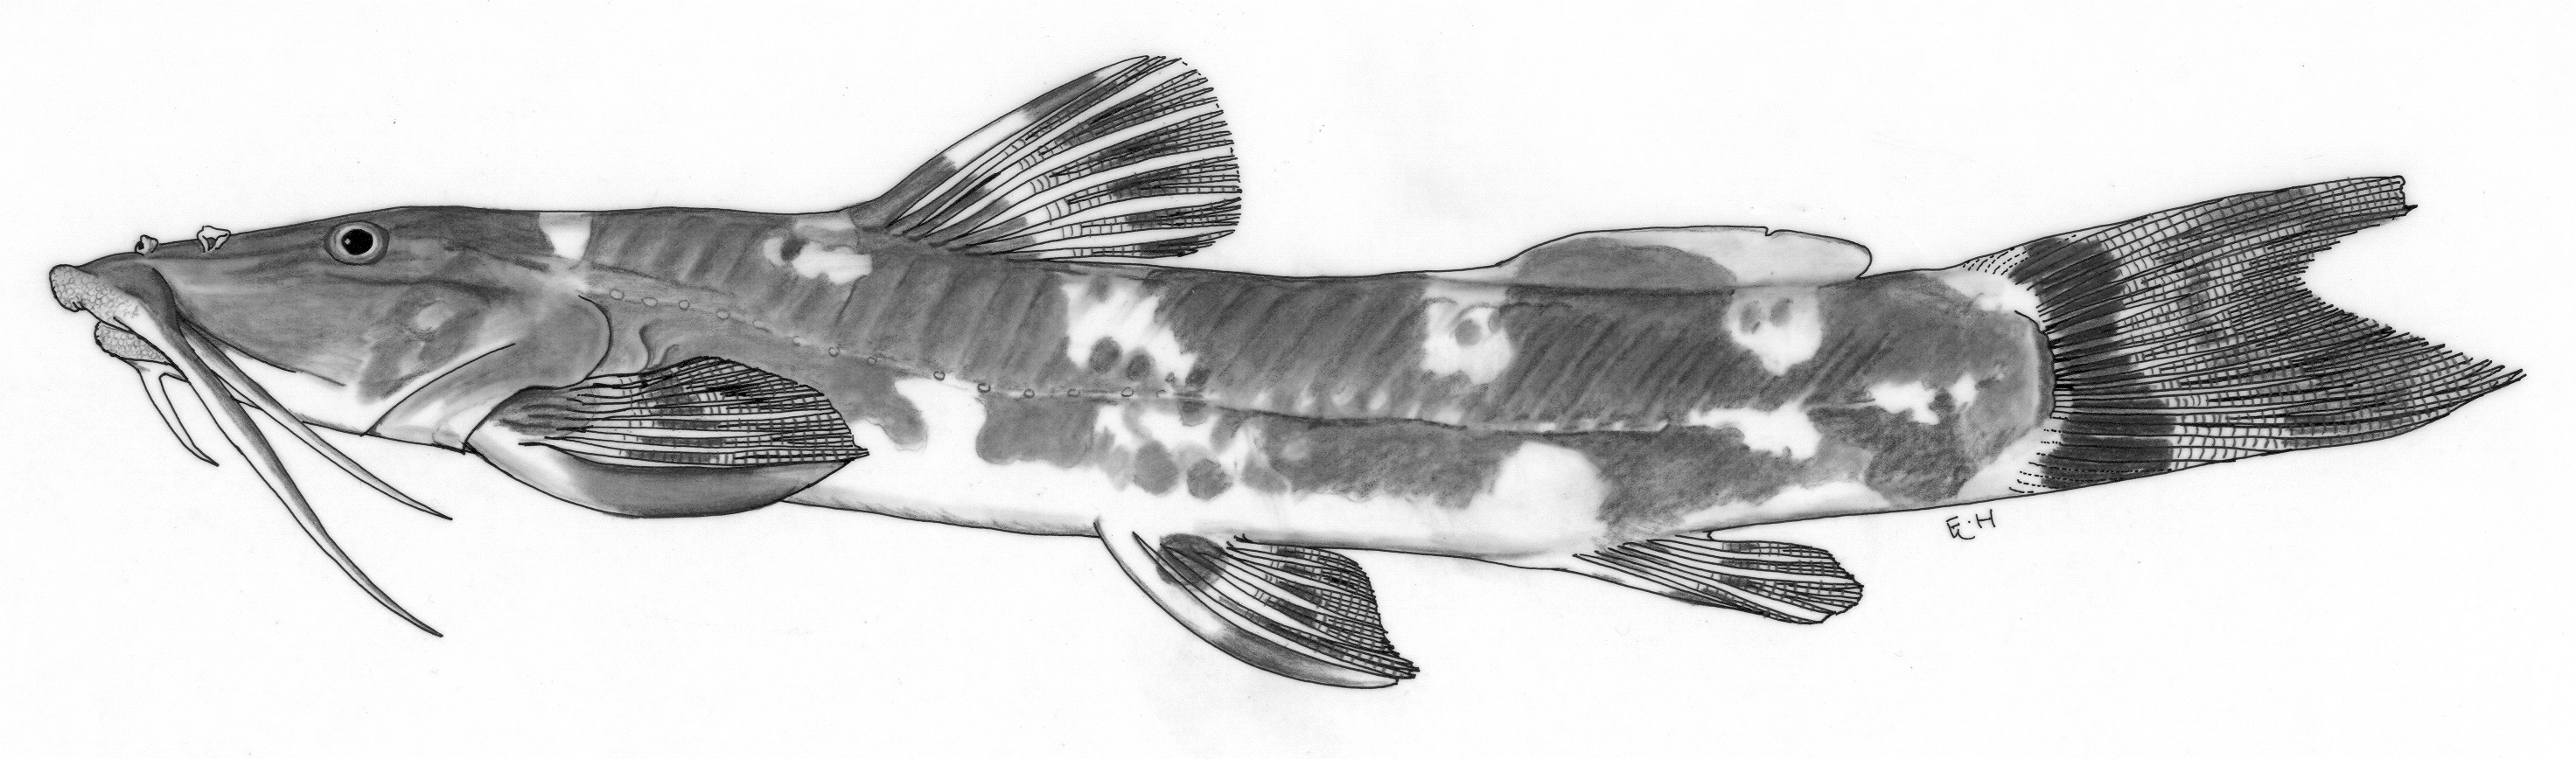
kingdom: Animalia
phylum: Chordata
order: Siluriformes
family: Amphiliidae
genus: Amphilius
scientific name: Amphilius dimonikensis
